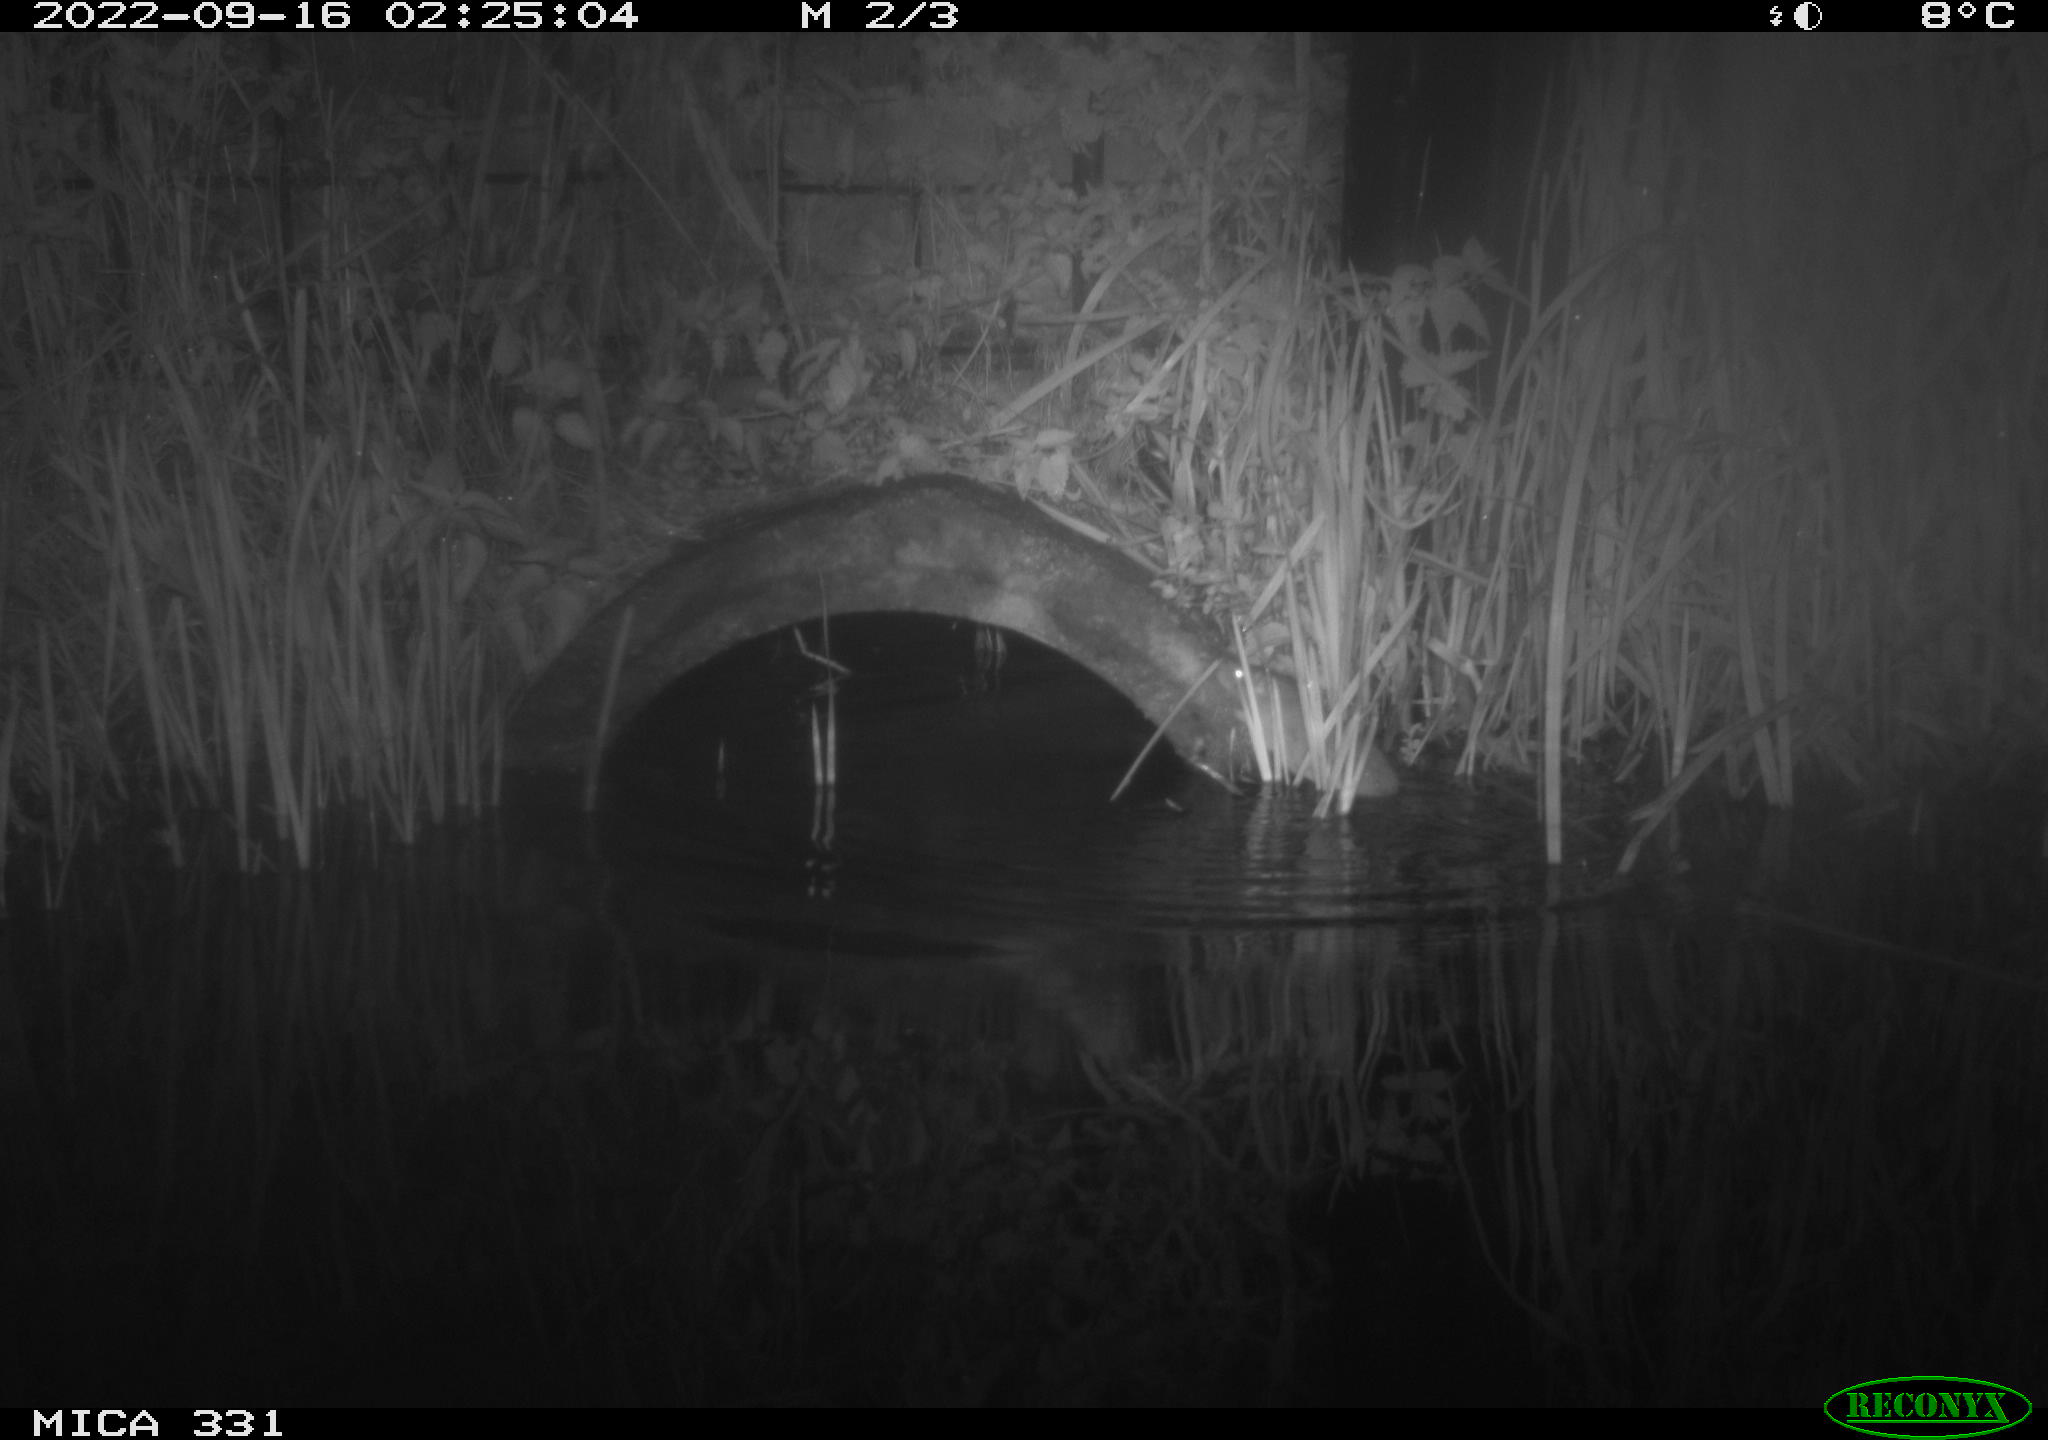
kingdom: Animalia
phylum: Chordata
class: Mammalia
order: Rodentia
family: Muridae
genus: Rattus
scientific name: Rattus norvegicus
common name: Brown rat
